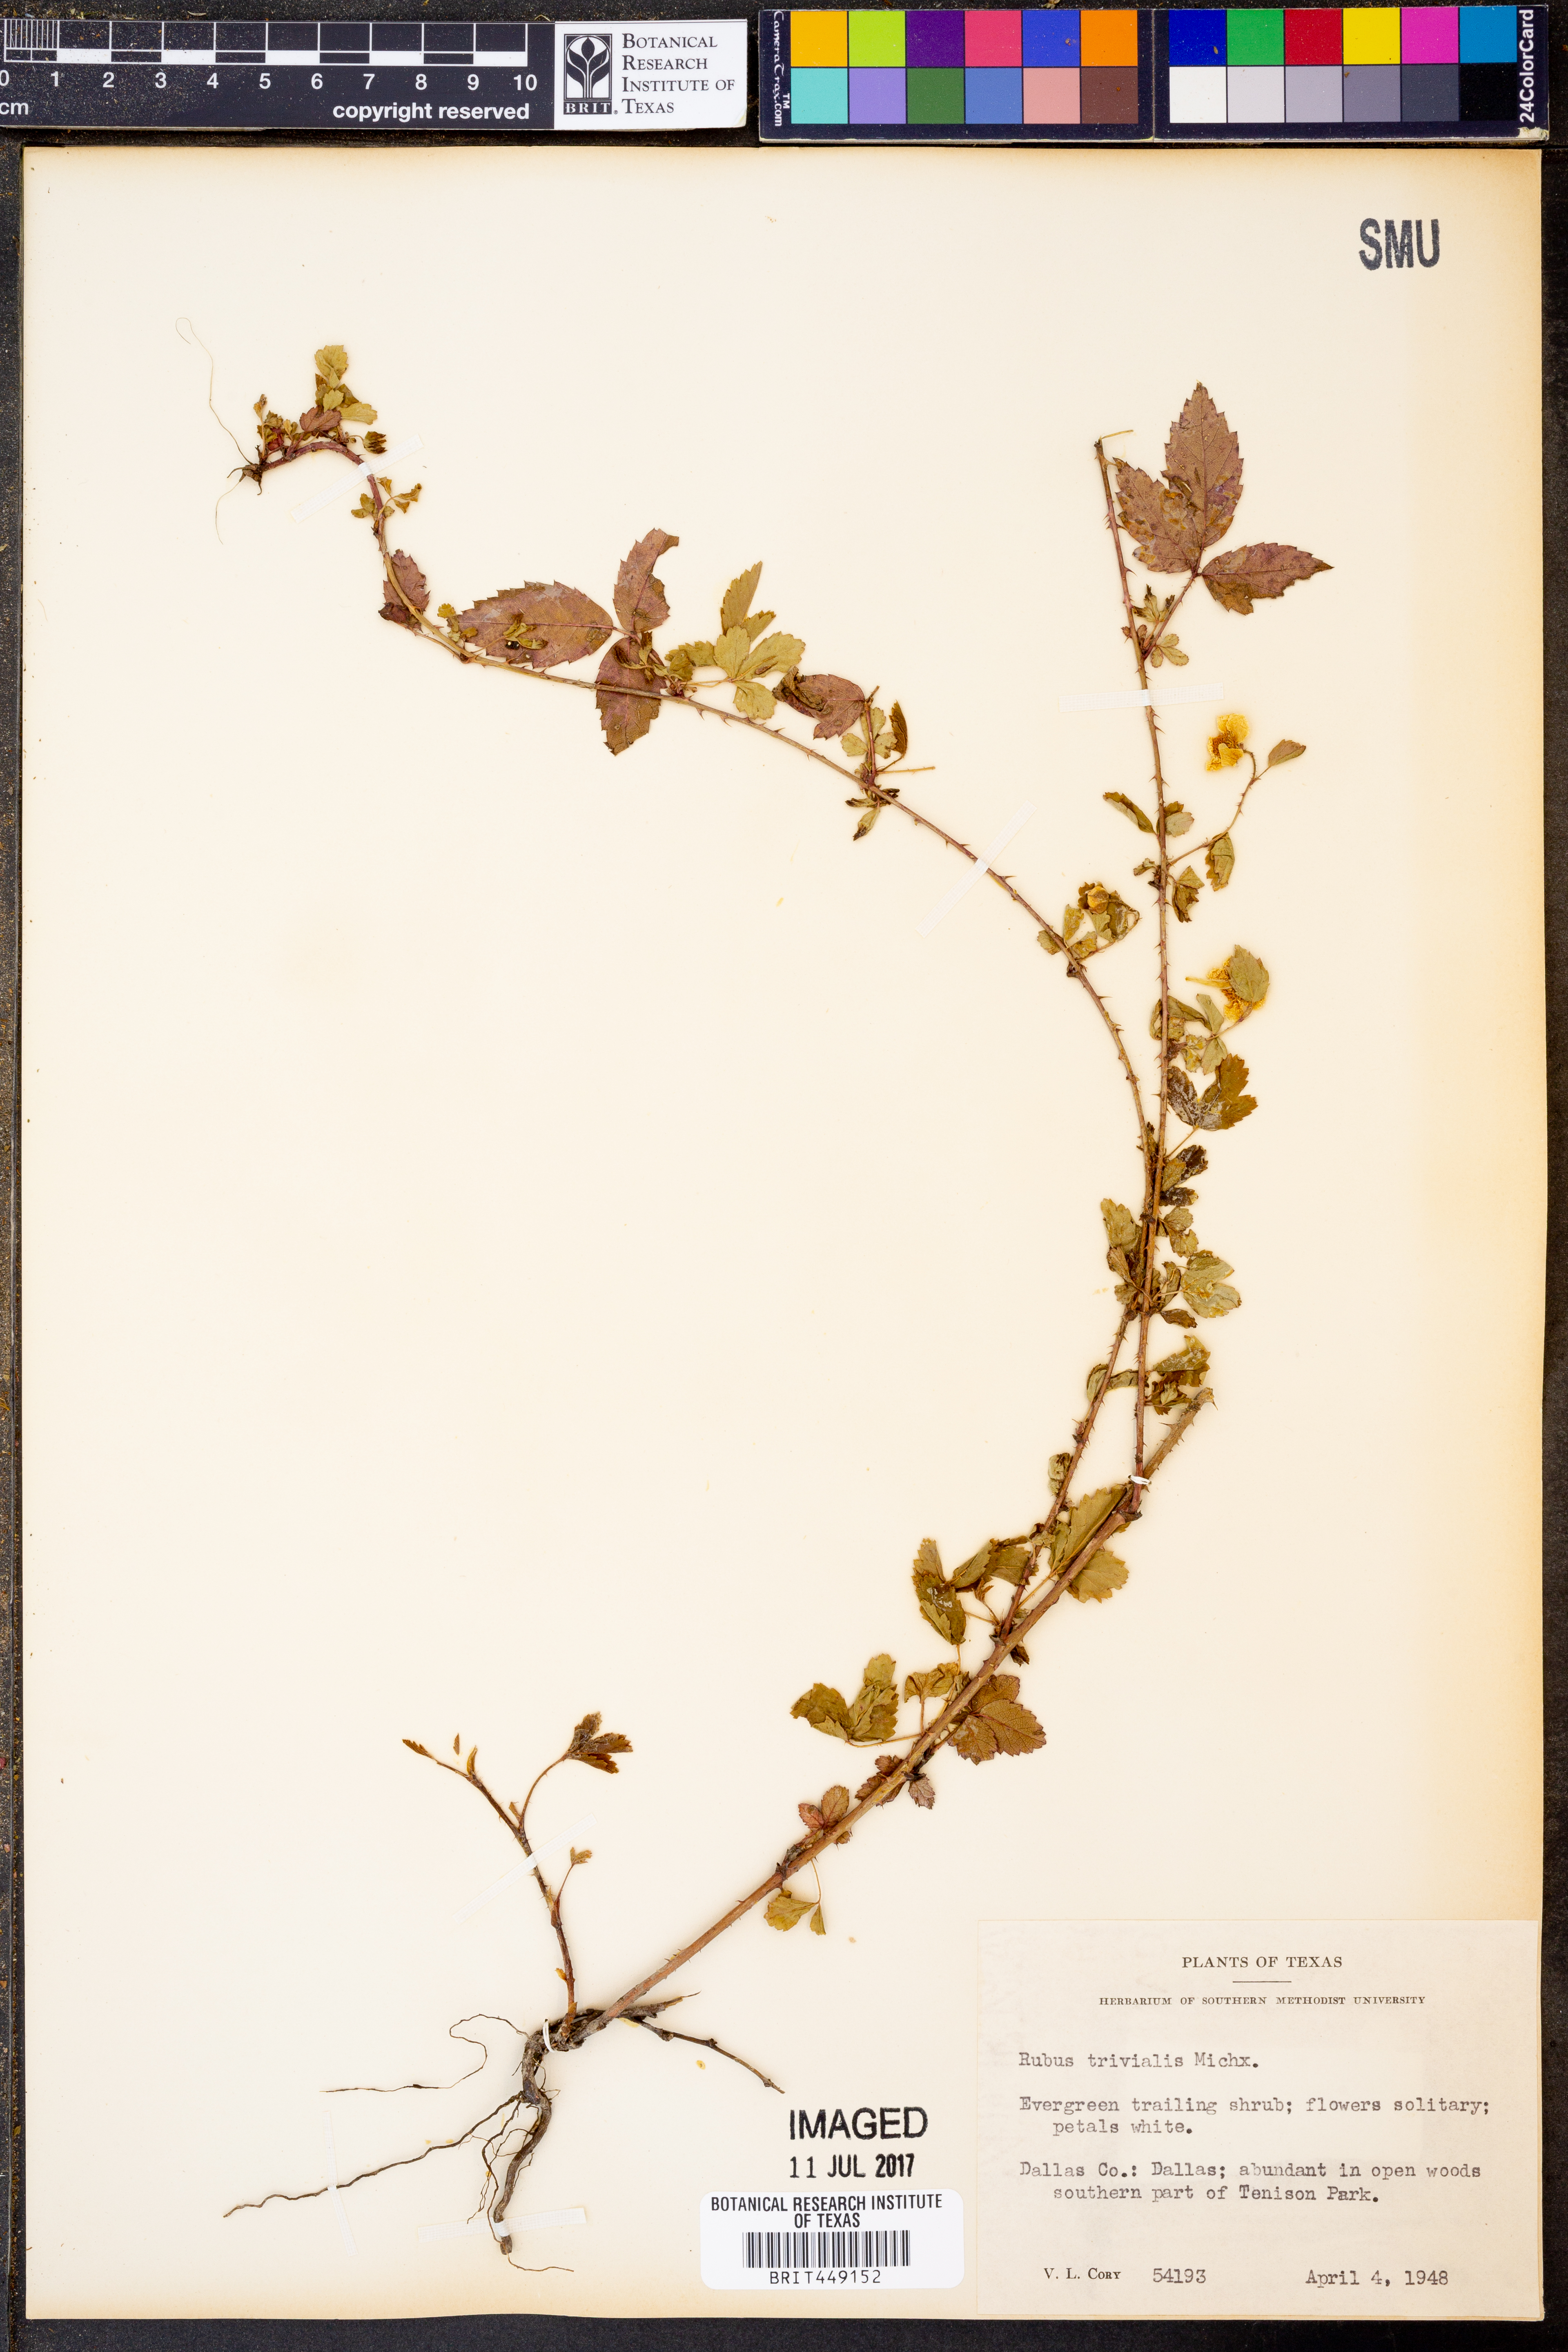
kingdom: Plantae
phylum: Tracheophyta
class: Magnoliopsida
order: Rosales
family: Rosaceae
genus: Rubus
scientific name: Rubus trivialis
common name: Southern dewberry
